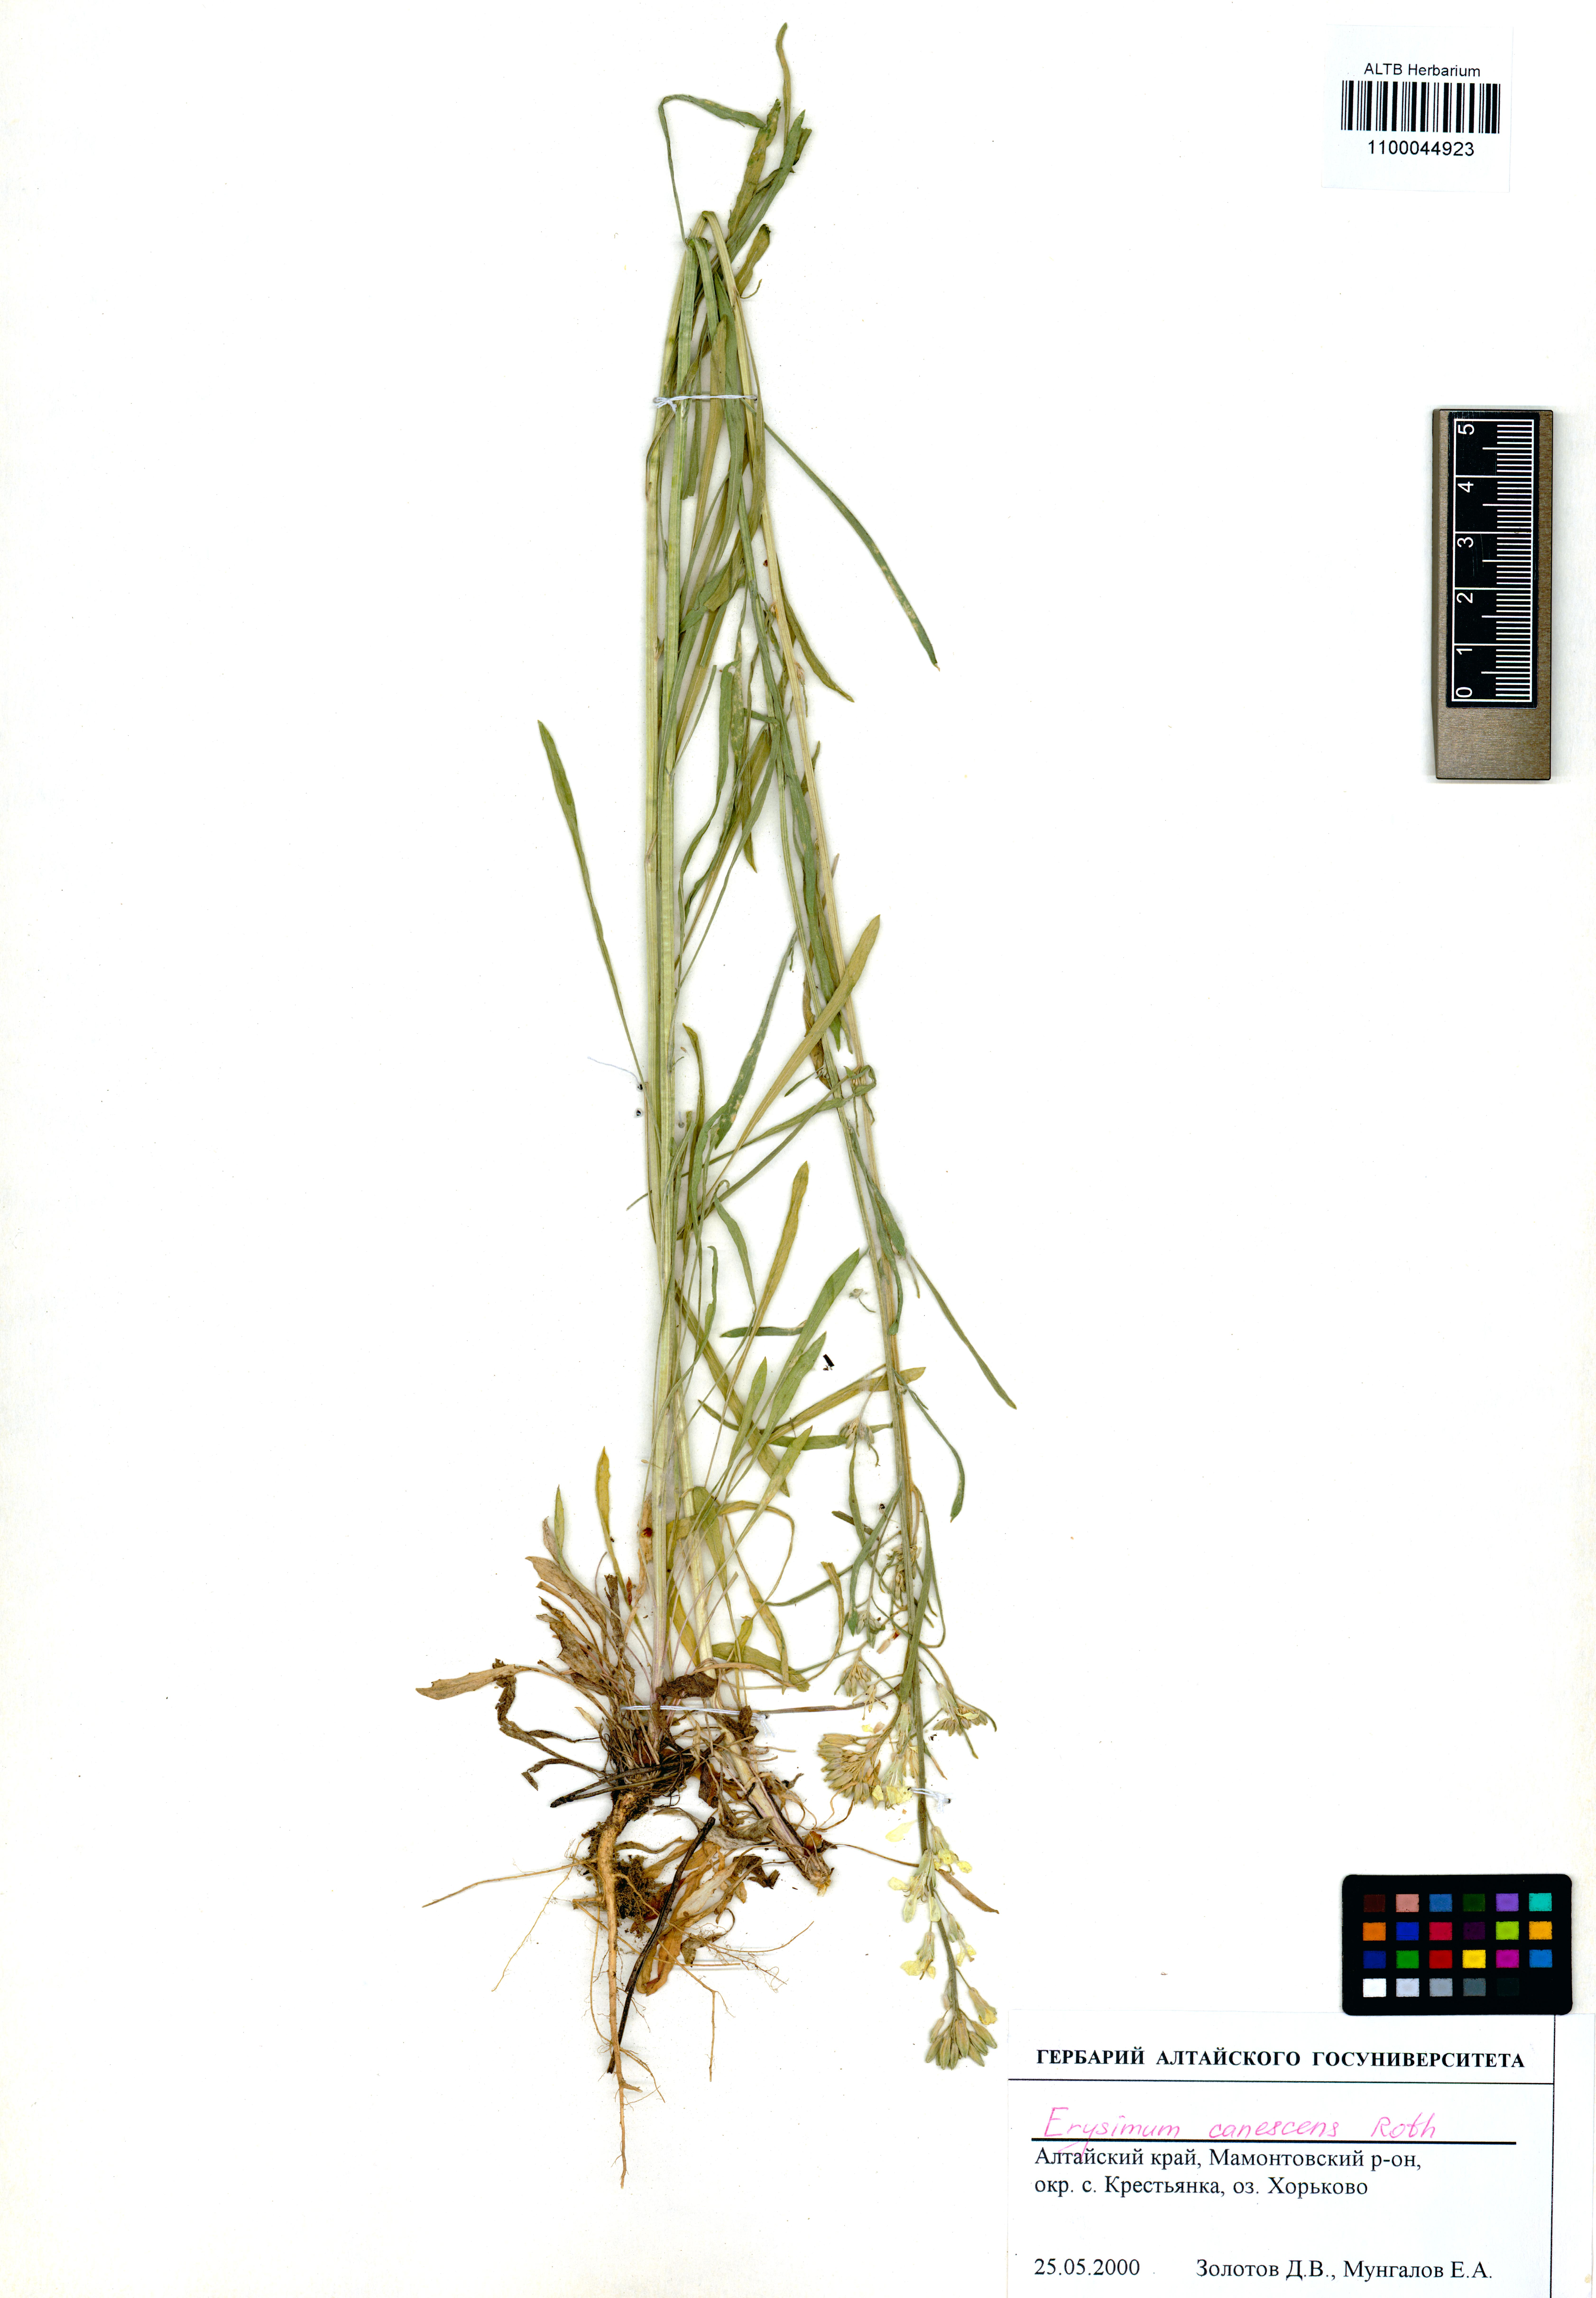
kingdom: Plantae
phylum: Tracheophyta
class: Magnoliopsida
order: Brassicales
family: Brassicaceae
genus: Erysimum
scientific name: Erysimum canescens
